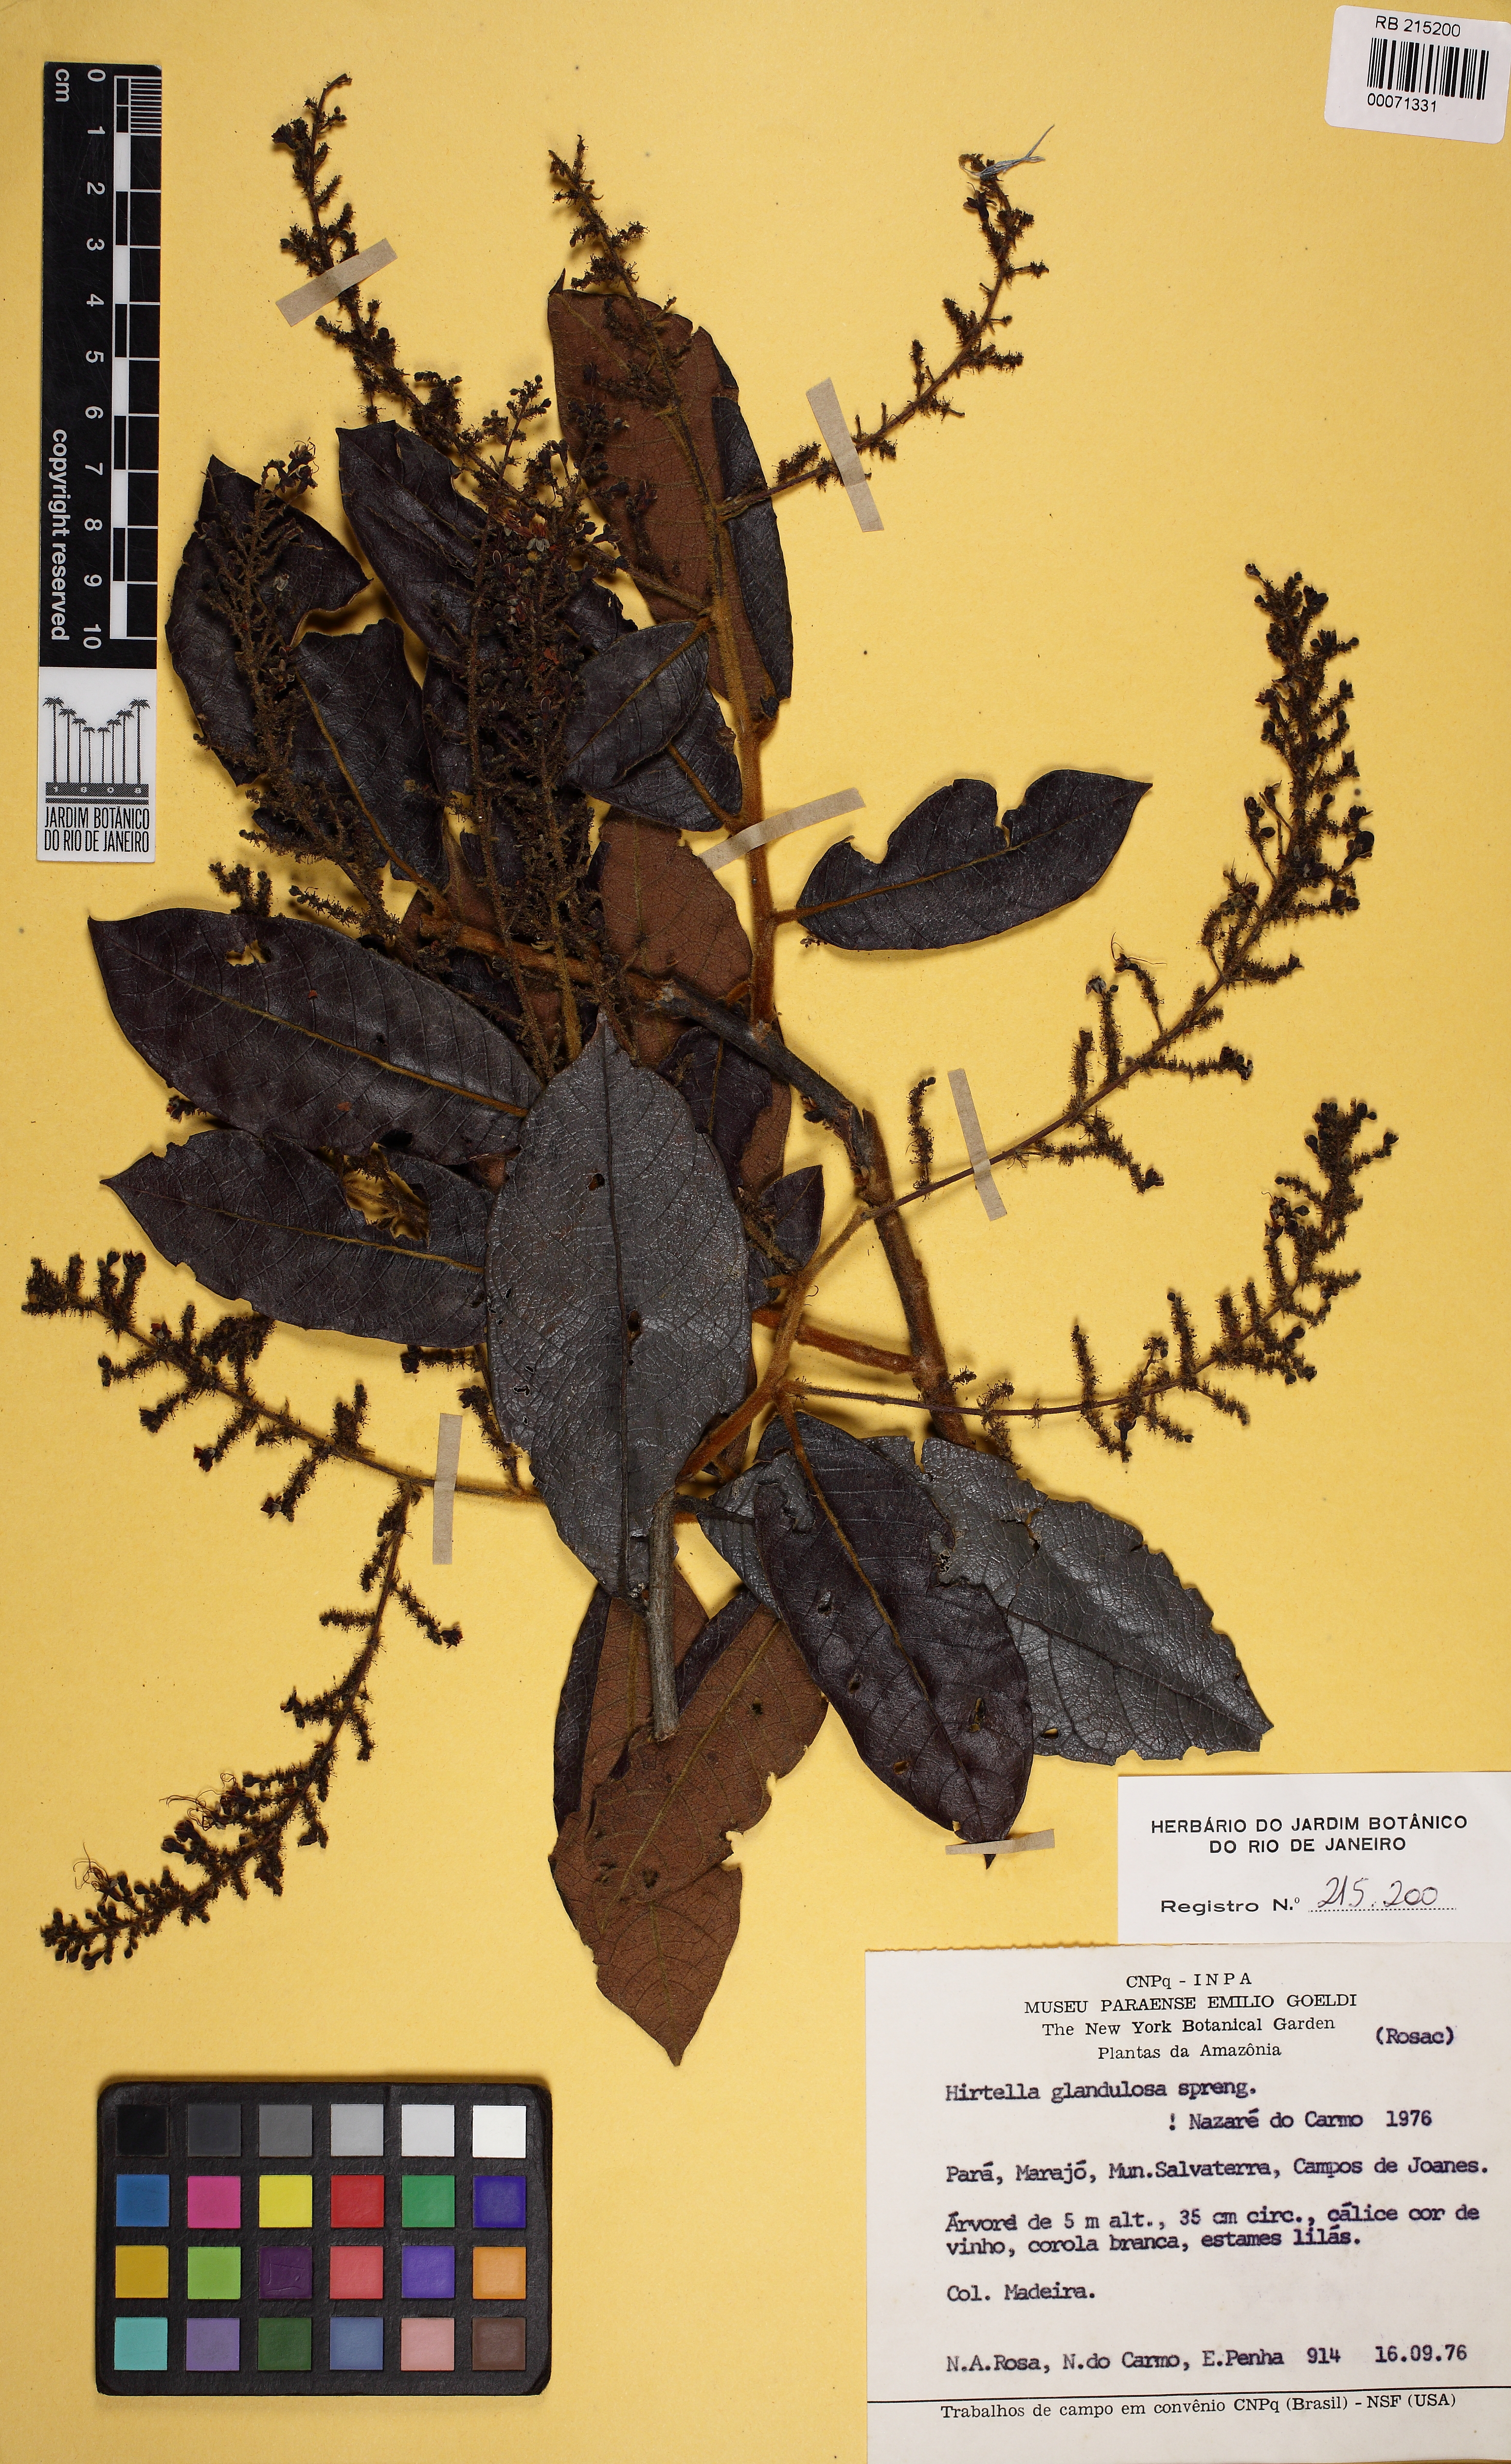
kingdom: Plantae
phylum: Tracheophyta
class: Magnoliopsida
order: Malpighiales
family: Chrysobalanaceae
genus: Hirtella
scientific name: Hirtella glandulosa
